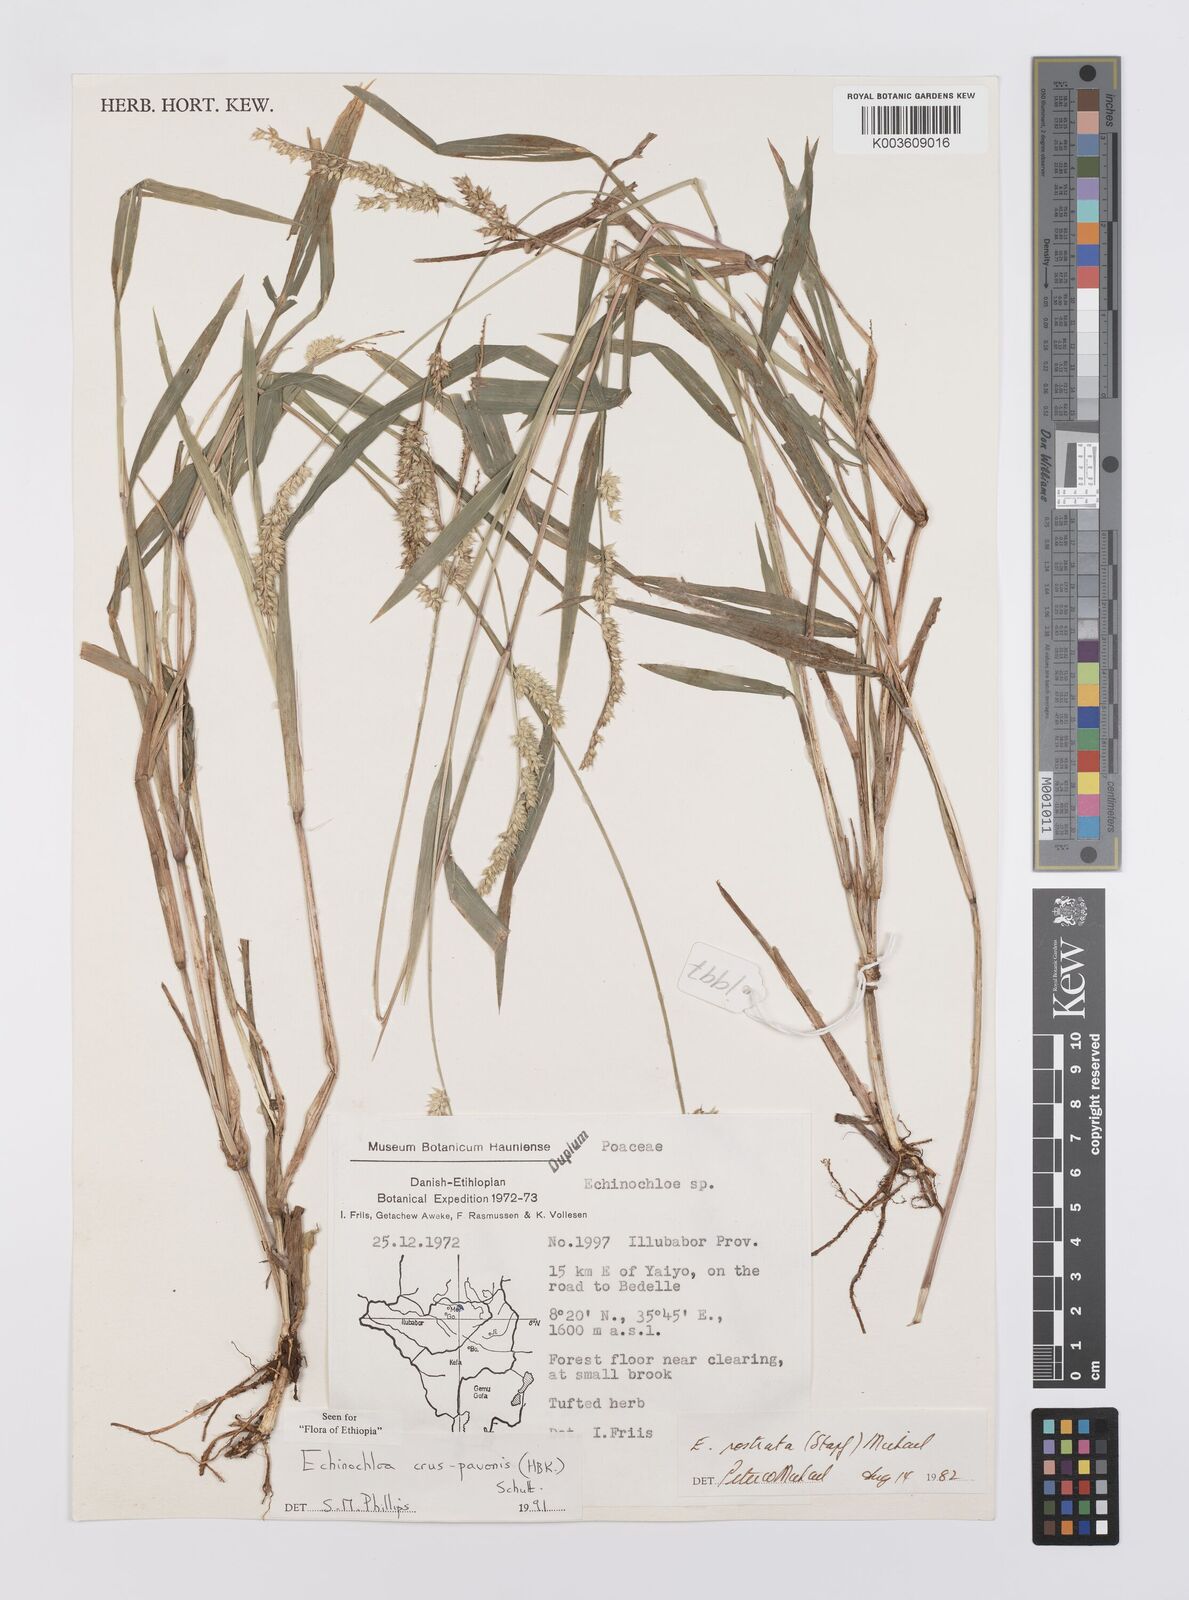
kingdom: Plantae
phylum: Tracheophyta
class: Liliopsida
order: Poales
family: Poaceae
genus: Echinochloa
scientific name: Echinochloa crus-pavonis
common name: Gulf cockspur grass
